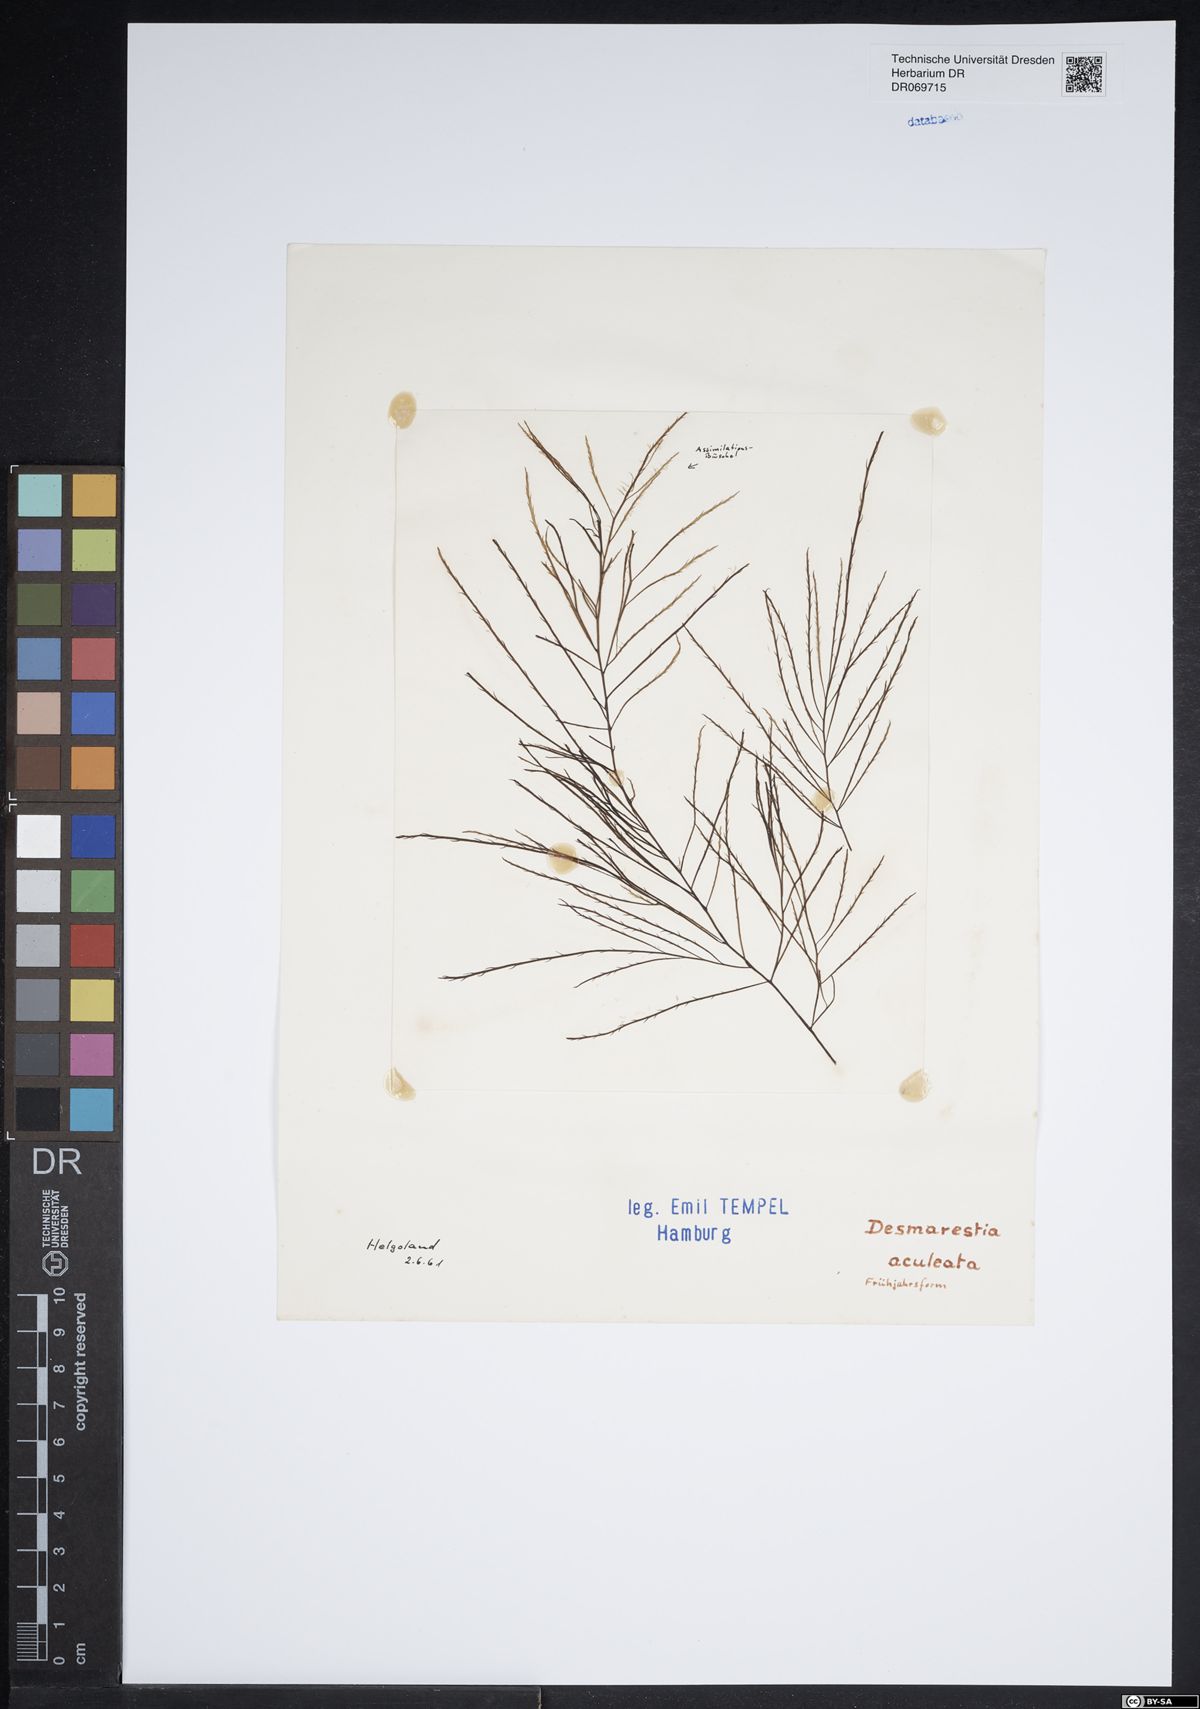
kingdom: Chromista
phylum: Ochrophyta
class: Phaeophyceae
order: Desmarestiales
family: Desmarestiaceae
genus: Desmarestia
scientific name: Desmarestia aculeata
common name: Witch's hair
